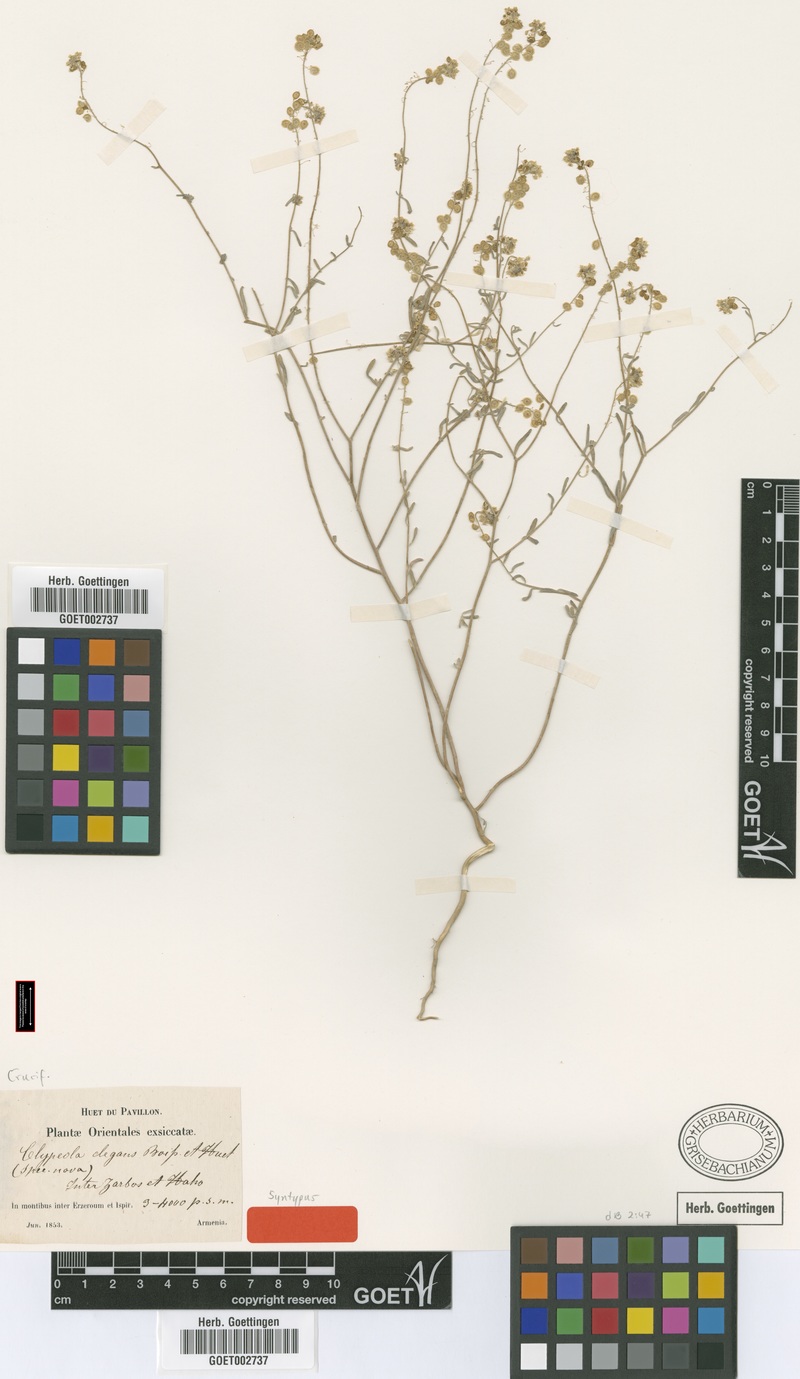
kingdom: Plantae
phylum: Tracheophyta
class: Magnoliopsida
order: Brassicales
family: Brassicaceae
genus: Clypeola
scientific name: Clypeola elegans
